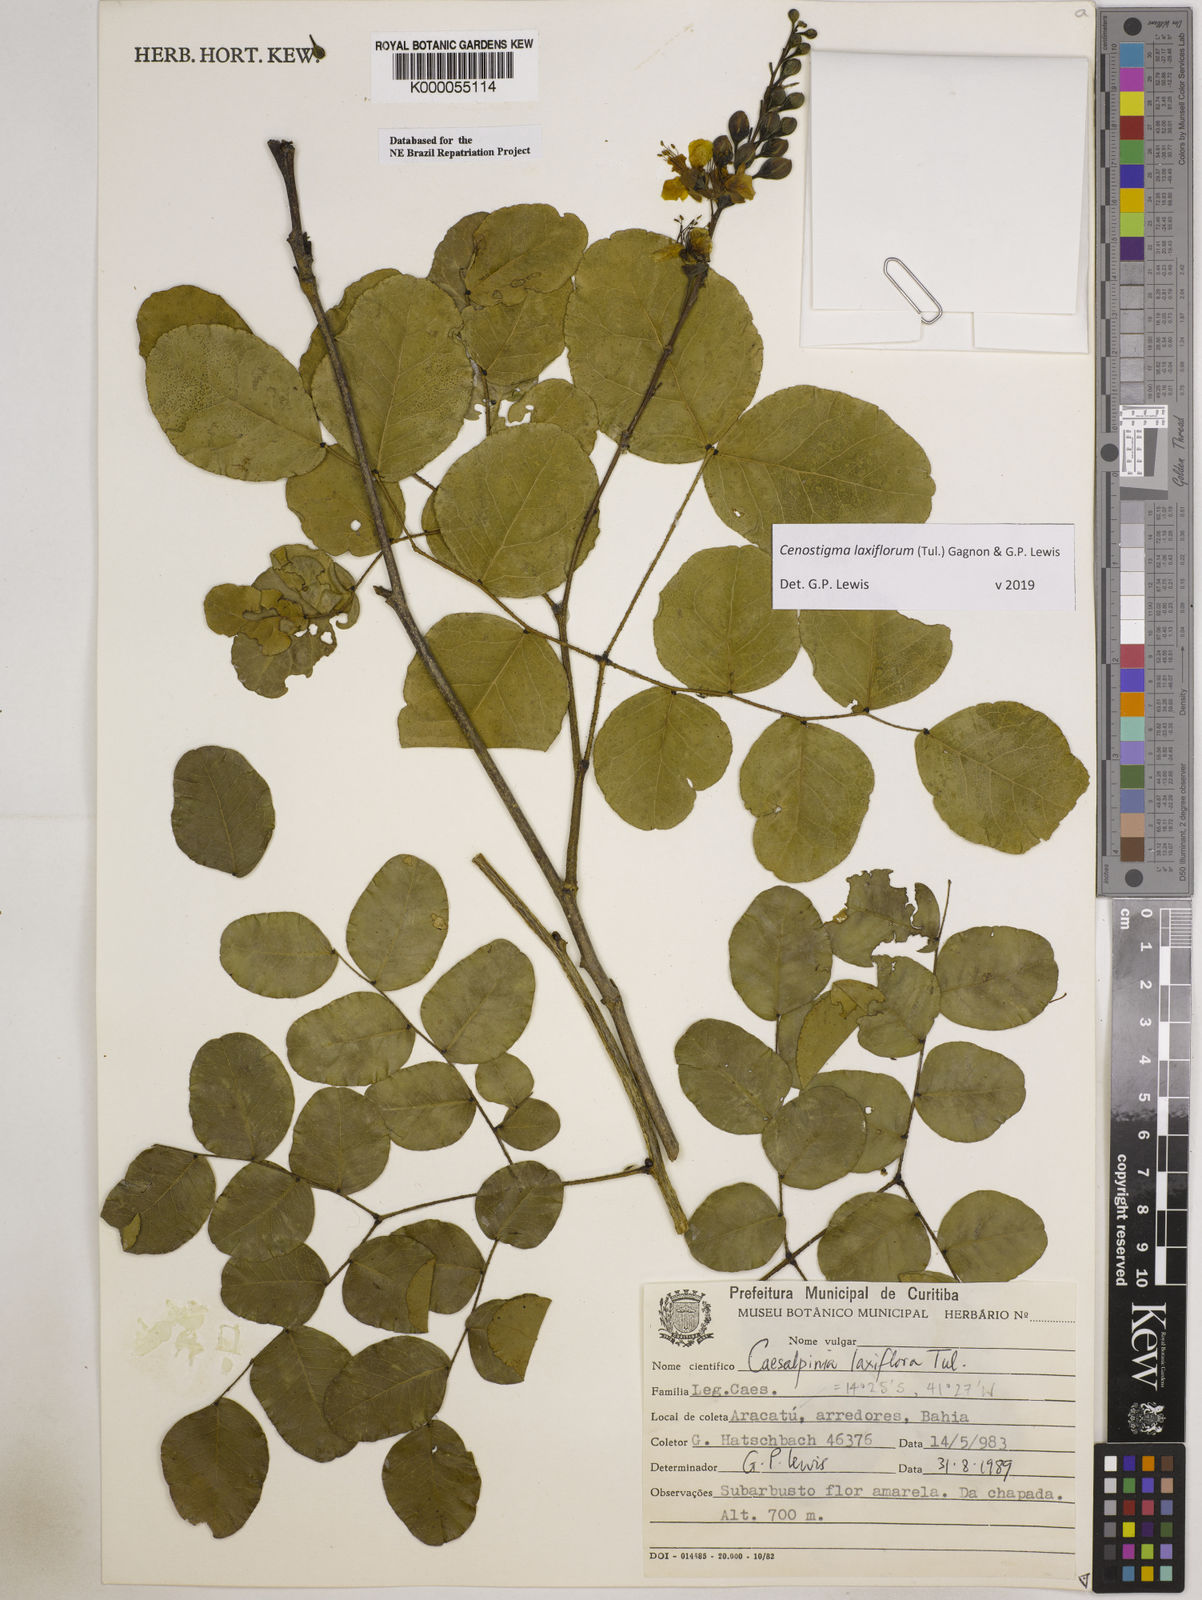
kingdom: Plantae
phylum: Tracheophyta
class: Magnoliopsida
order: Fabales
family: Fabaceae
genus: Cenostigma
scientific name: Cenostigma laxiflorum
